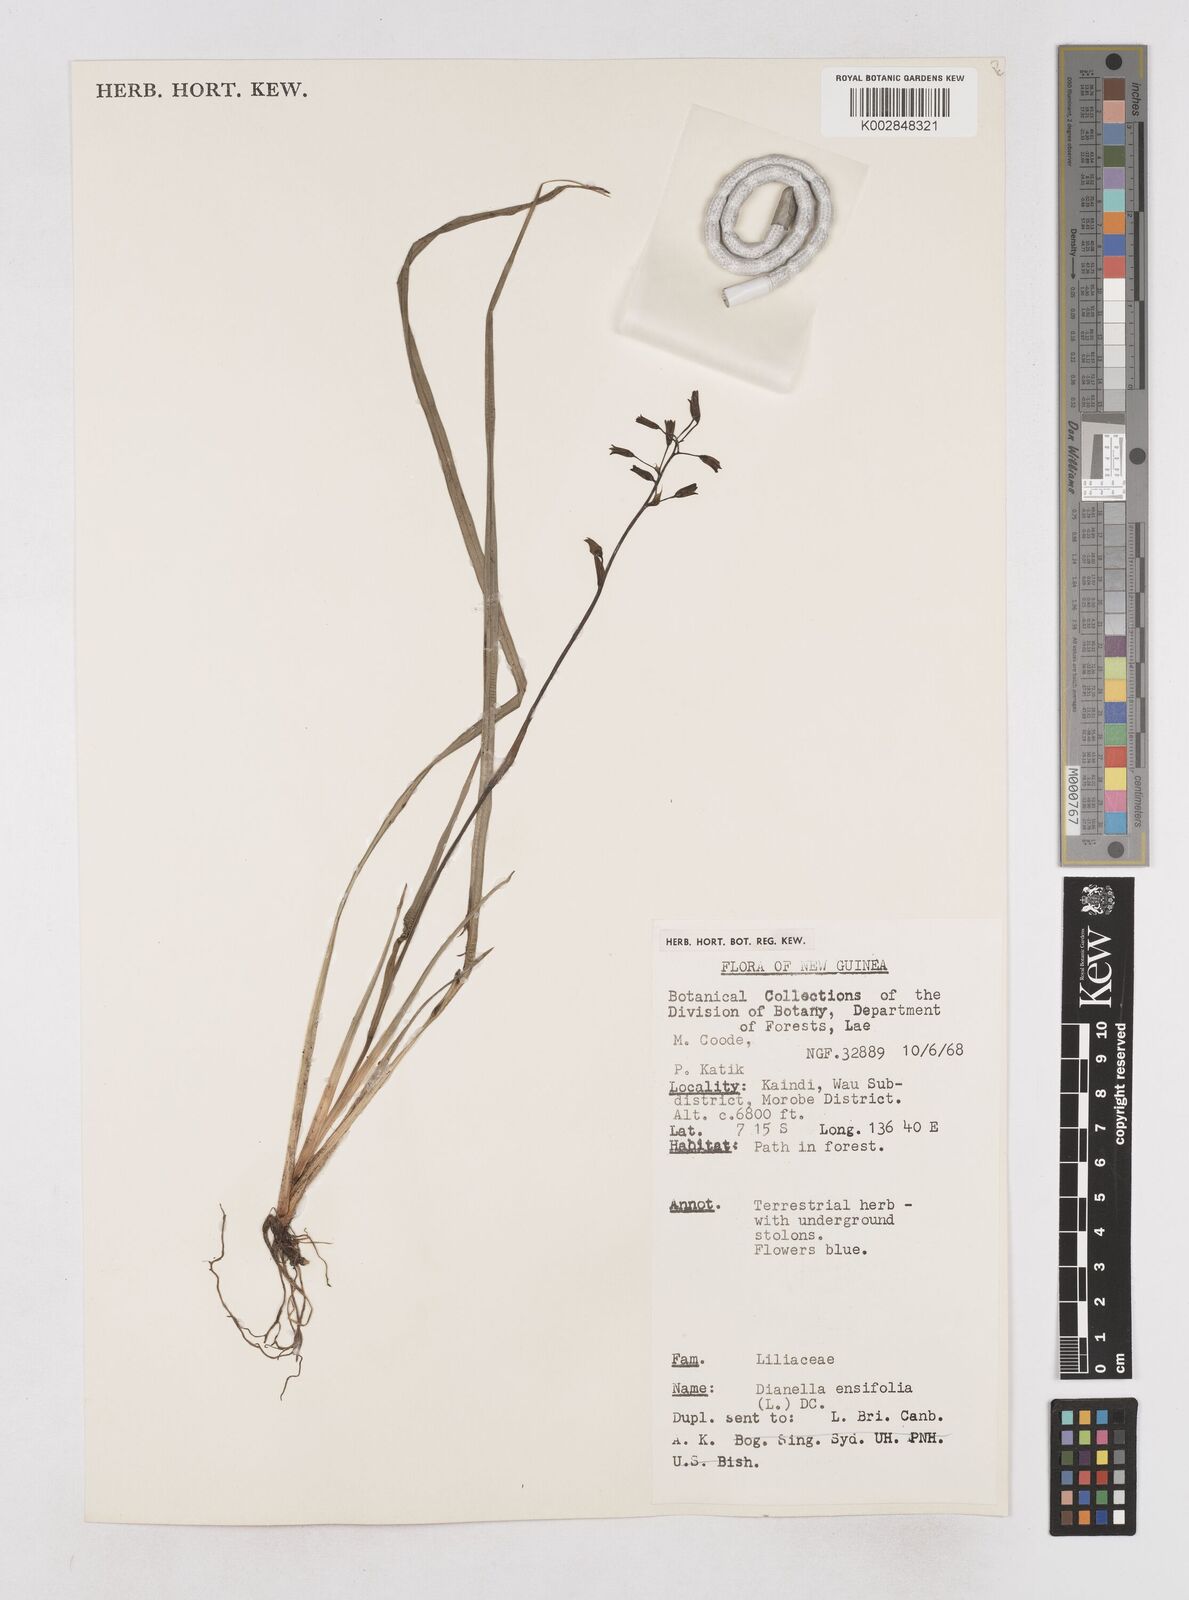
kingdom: Plantae
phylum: Tracheophyta
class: Liliopsida
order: Asparagales
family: Asphodelaceae
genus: Dianella
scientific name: Dianella ensifolia
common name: New zealand lilyplant
